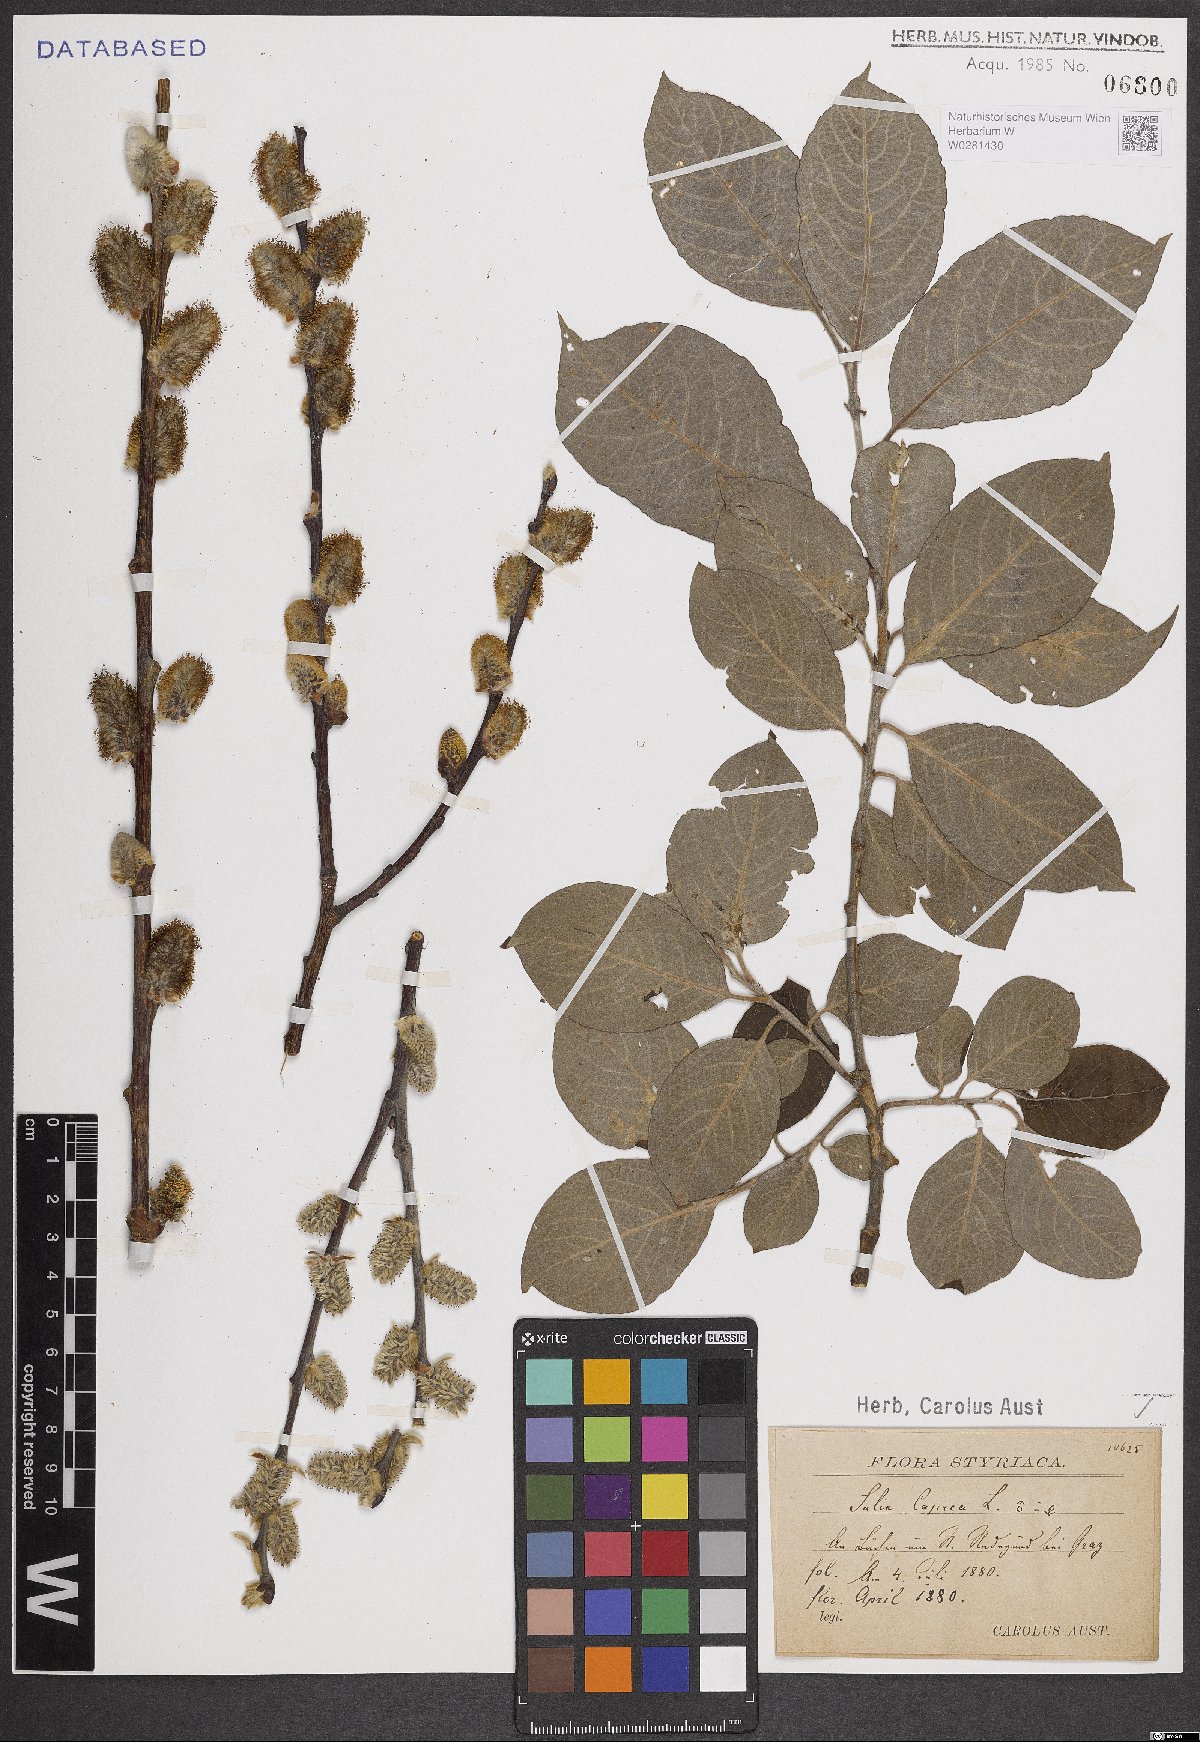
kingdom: Plantae
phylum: Tracheophyta
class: Magnoliopsida
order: Malpighiales
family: Salicaceae
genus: Salix
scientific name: Salix caprea
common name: Goat willow
